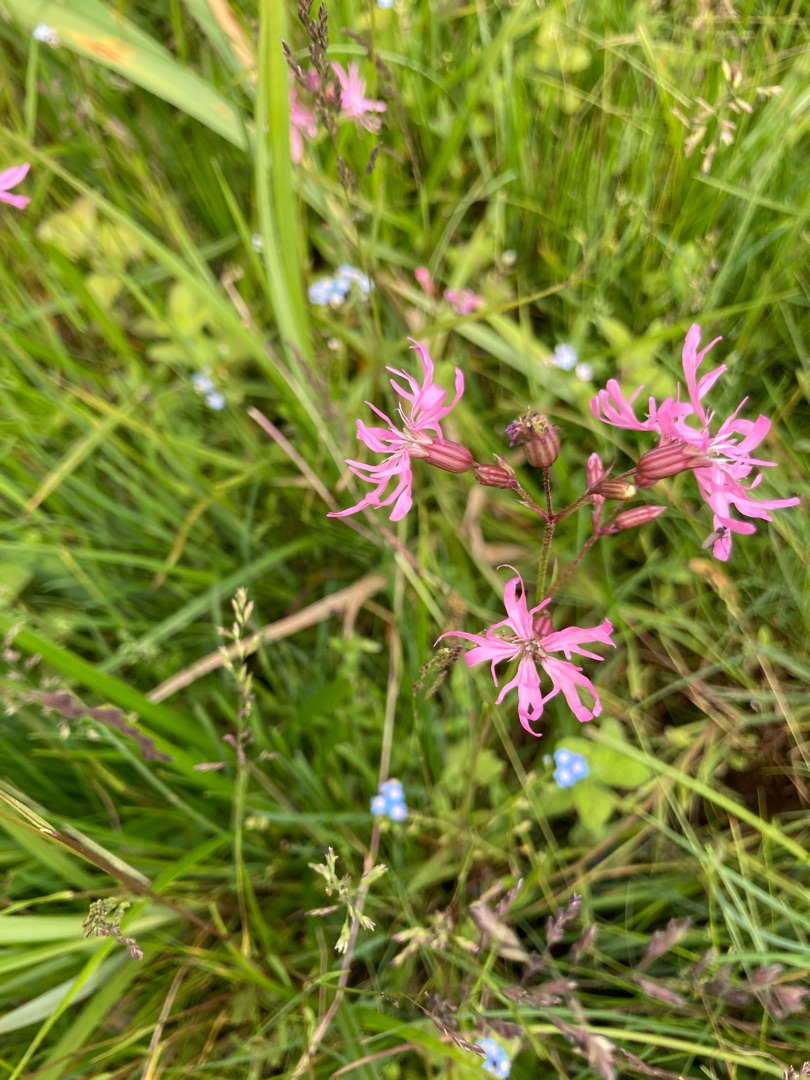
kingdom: Plantae
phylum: Tracheophyta
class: Magnoliopsida
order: Caryophyllales
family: Caryophyllaceae
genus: Silene
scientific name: Silene flos-cuculi
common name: Trævlekrone
